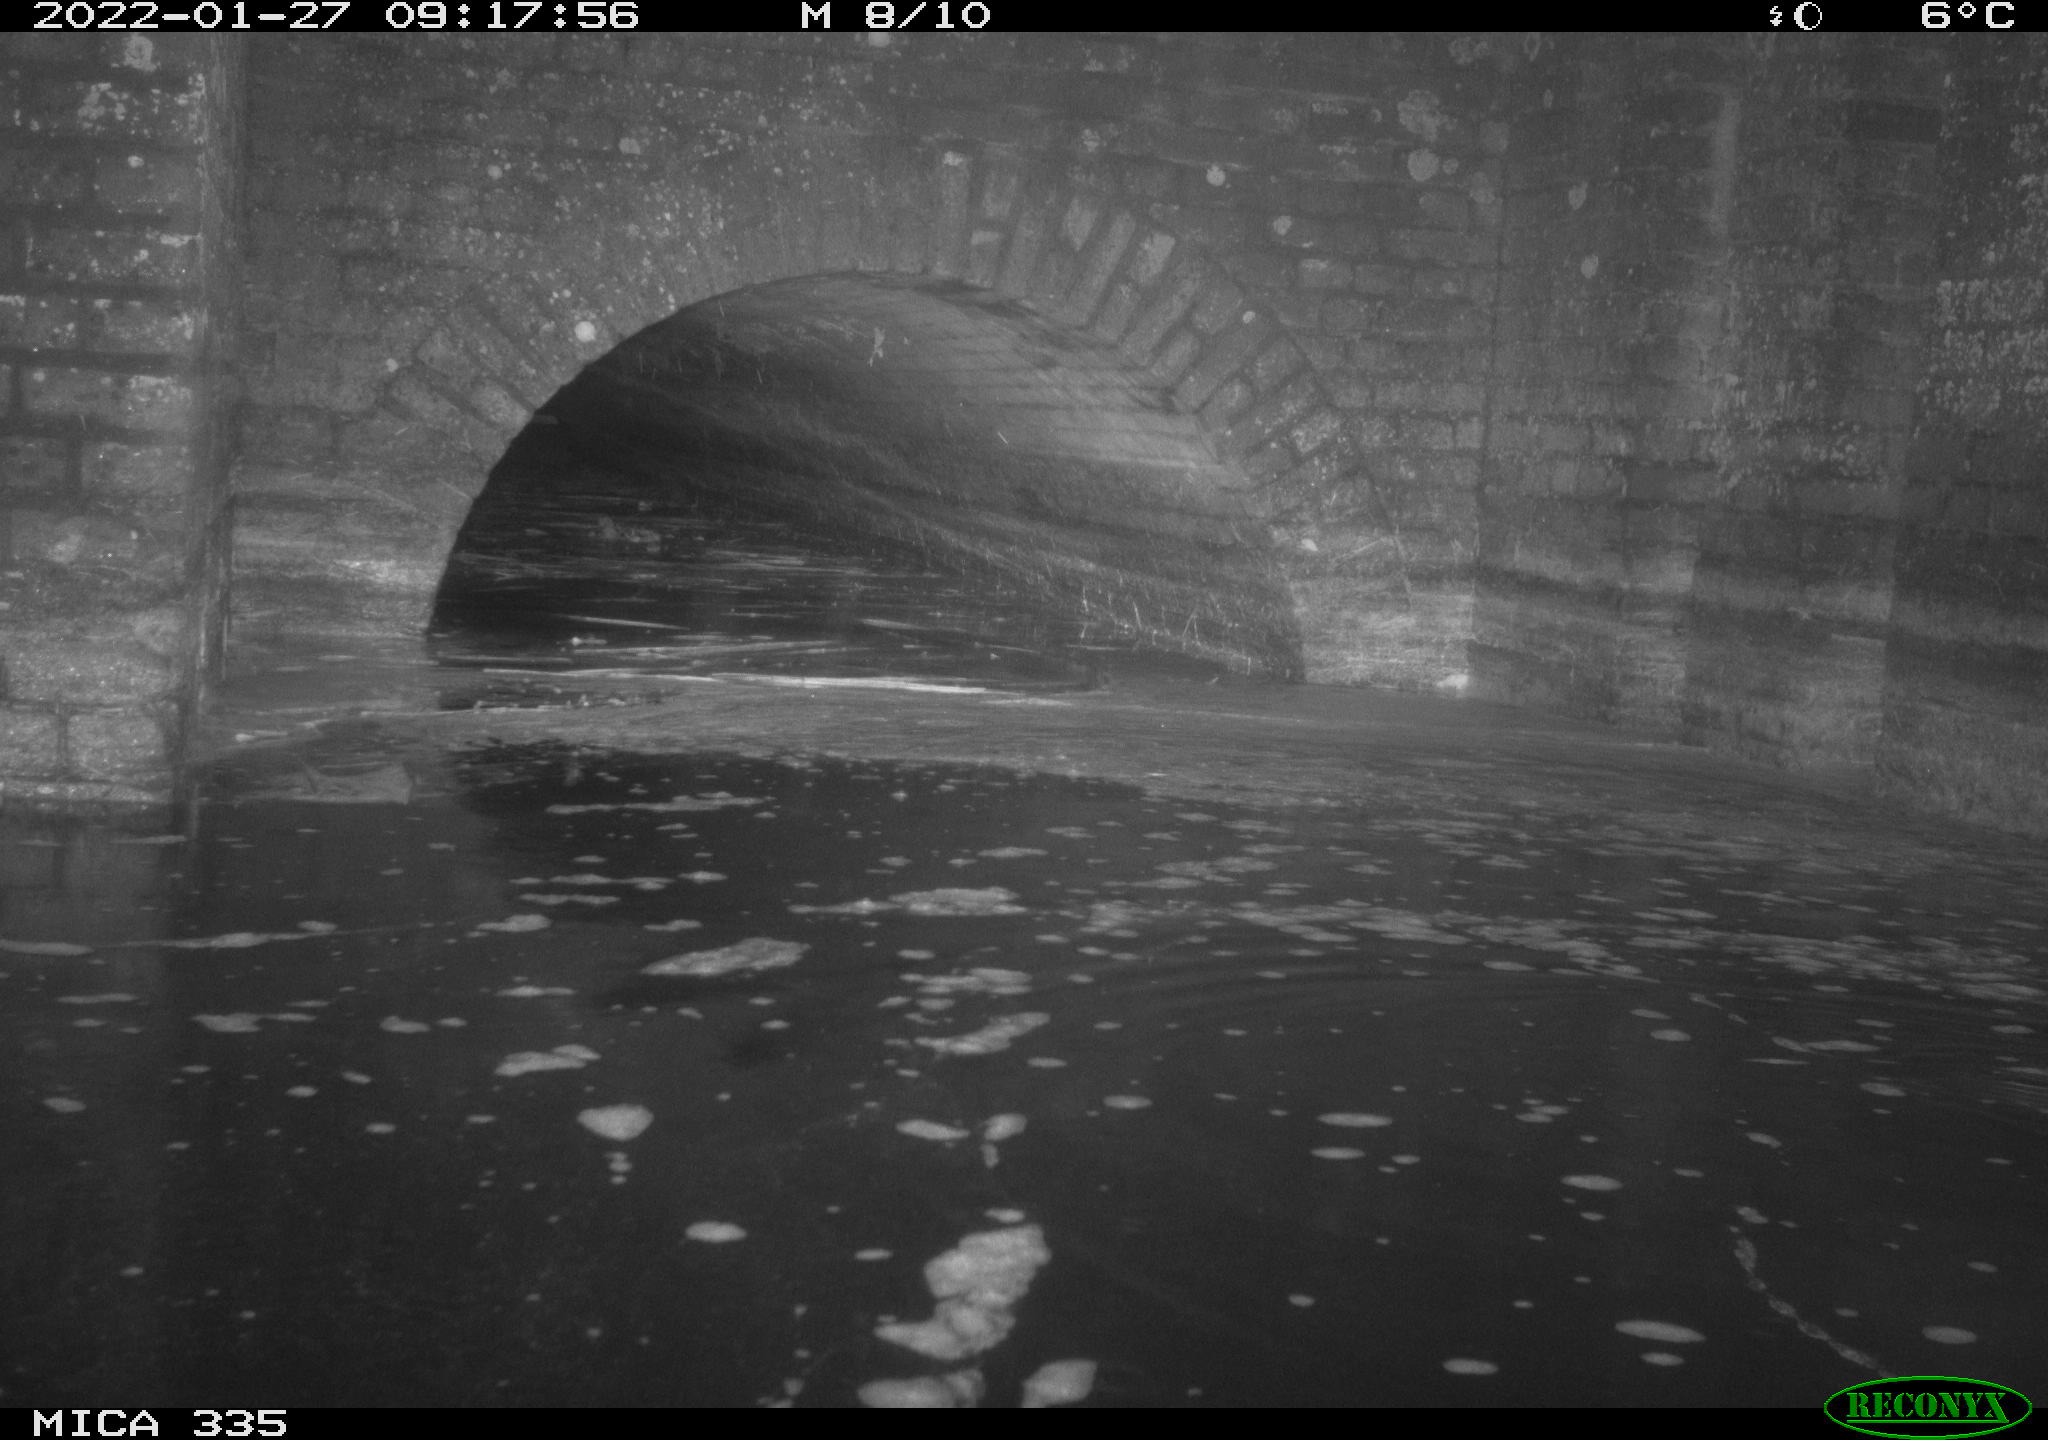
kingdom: Animalia
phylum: Chordata
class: Aves
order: Suliformes
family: Phalacrocoracidae
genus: Phalacrocorax
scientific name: Phalacrocorax carbo
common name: Great cormorant
